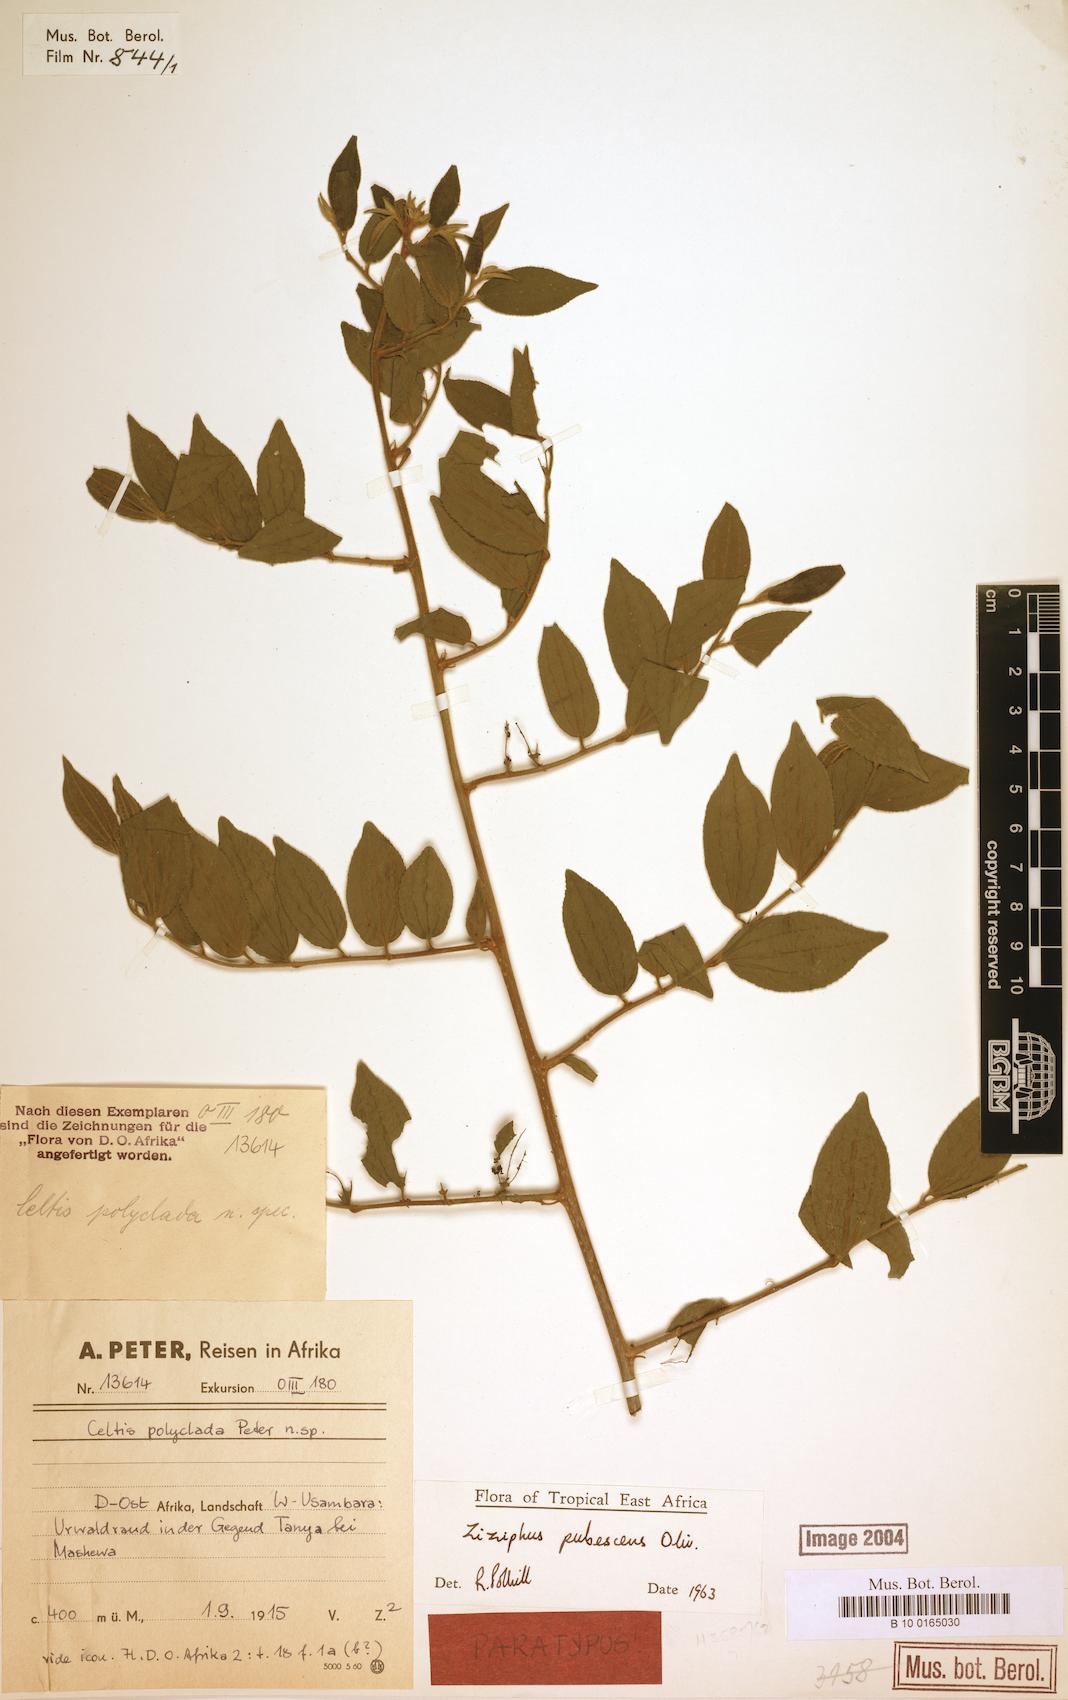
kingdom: Plantae
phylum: Tracheophyta
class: Magnoliopsida
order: Rosales
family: Rhamnaceae
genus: Ziziphus
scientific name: Ziziphus pubescens
